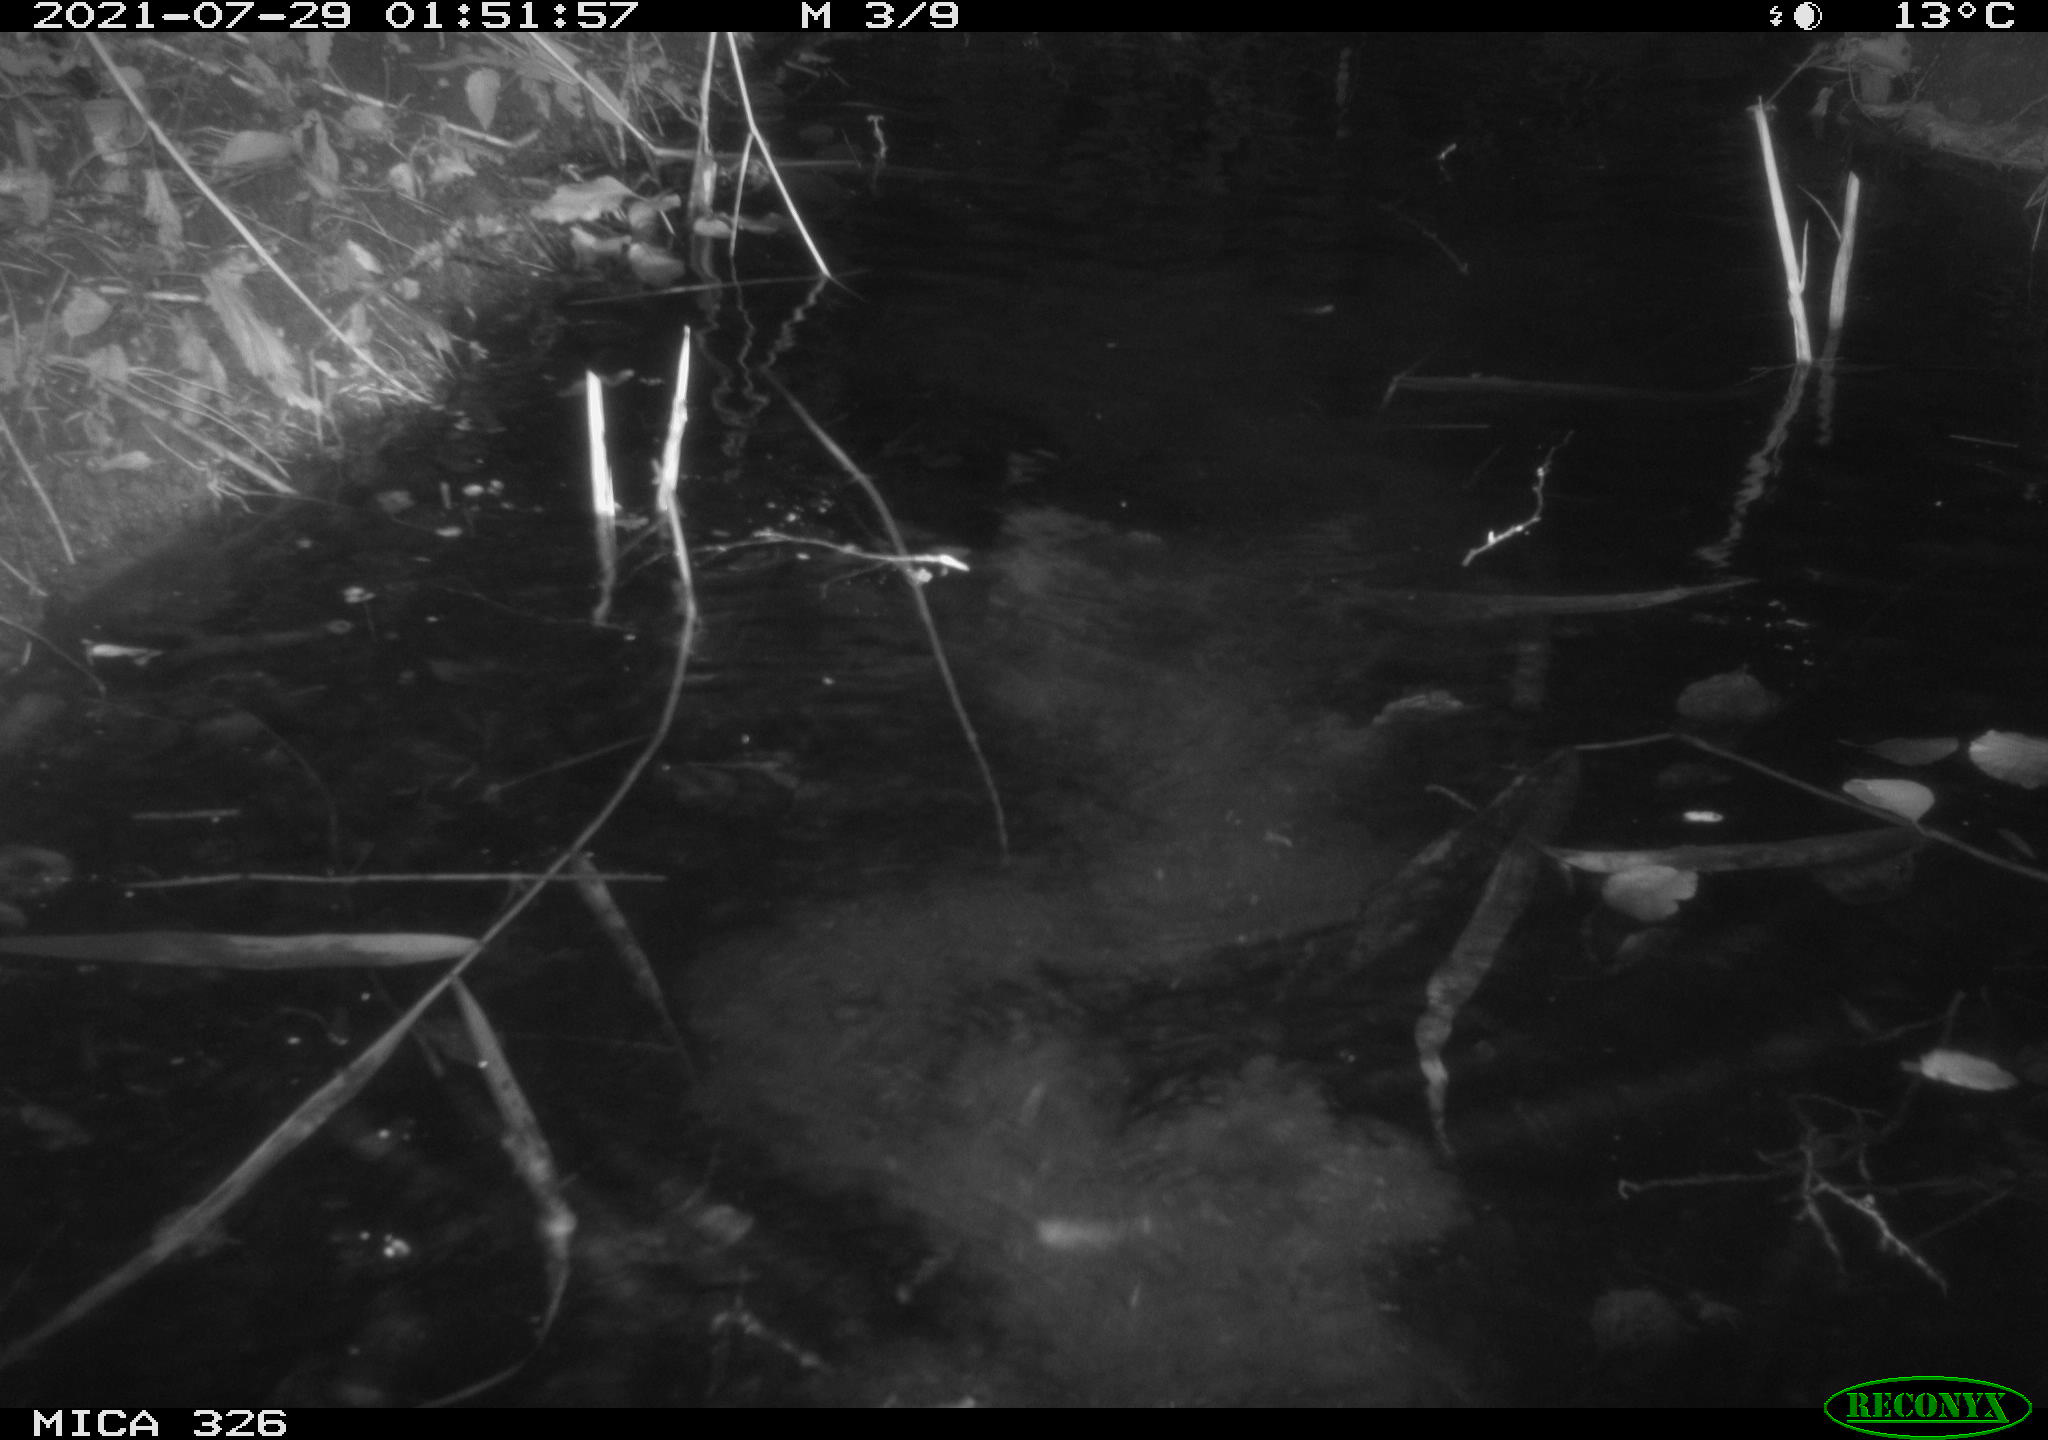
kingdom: Animalia
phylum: Chordata
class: Mammalia
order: Rodentia
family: Myocastoridae
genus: Myocastor
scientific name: Myocastor coypus
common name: Coypu
